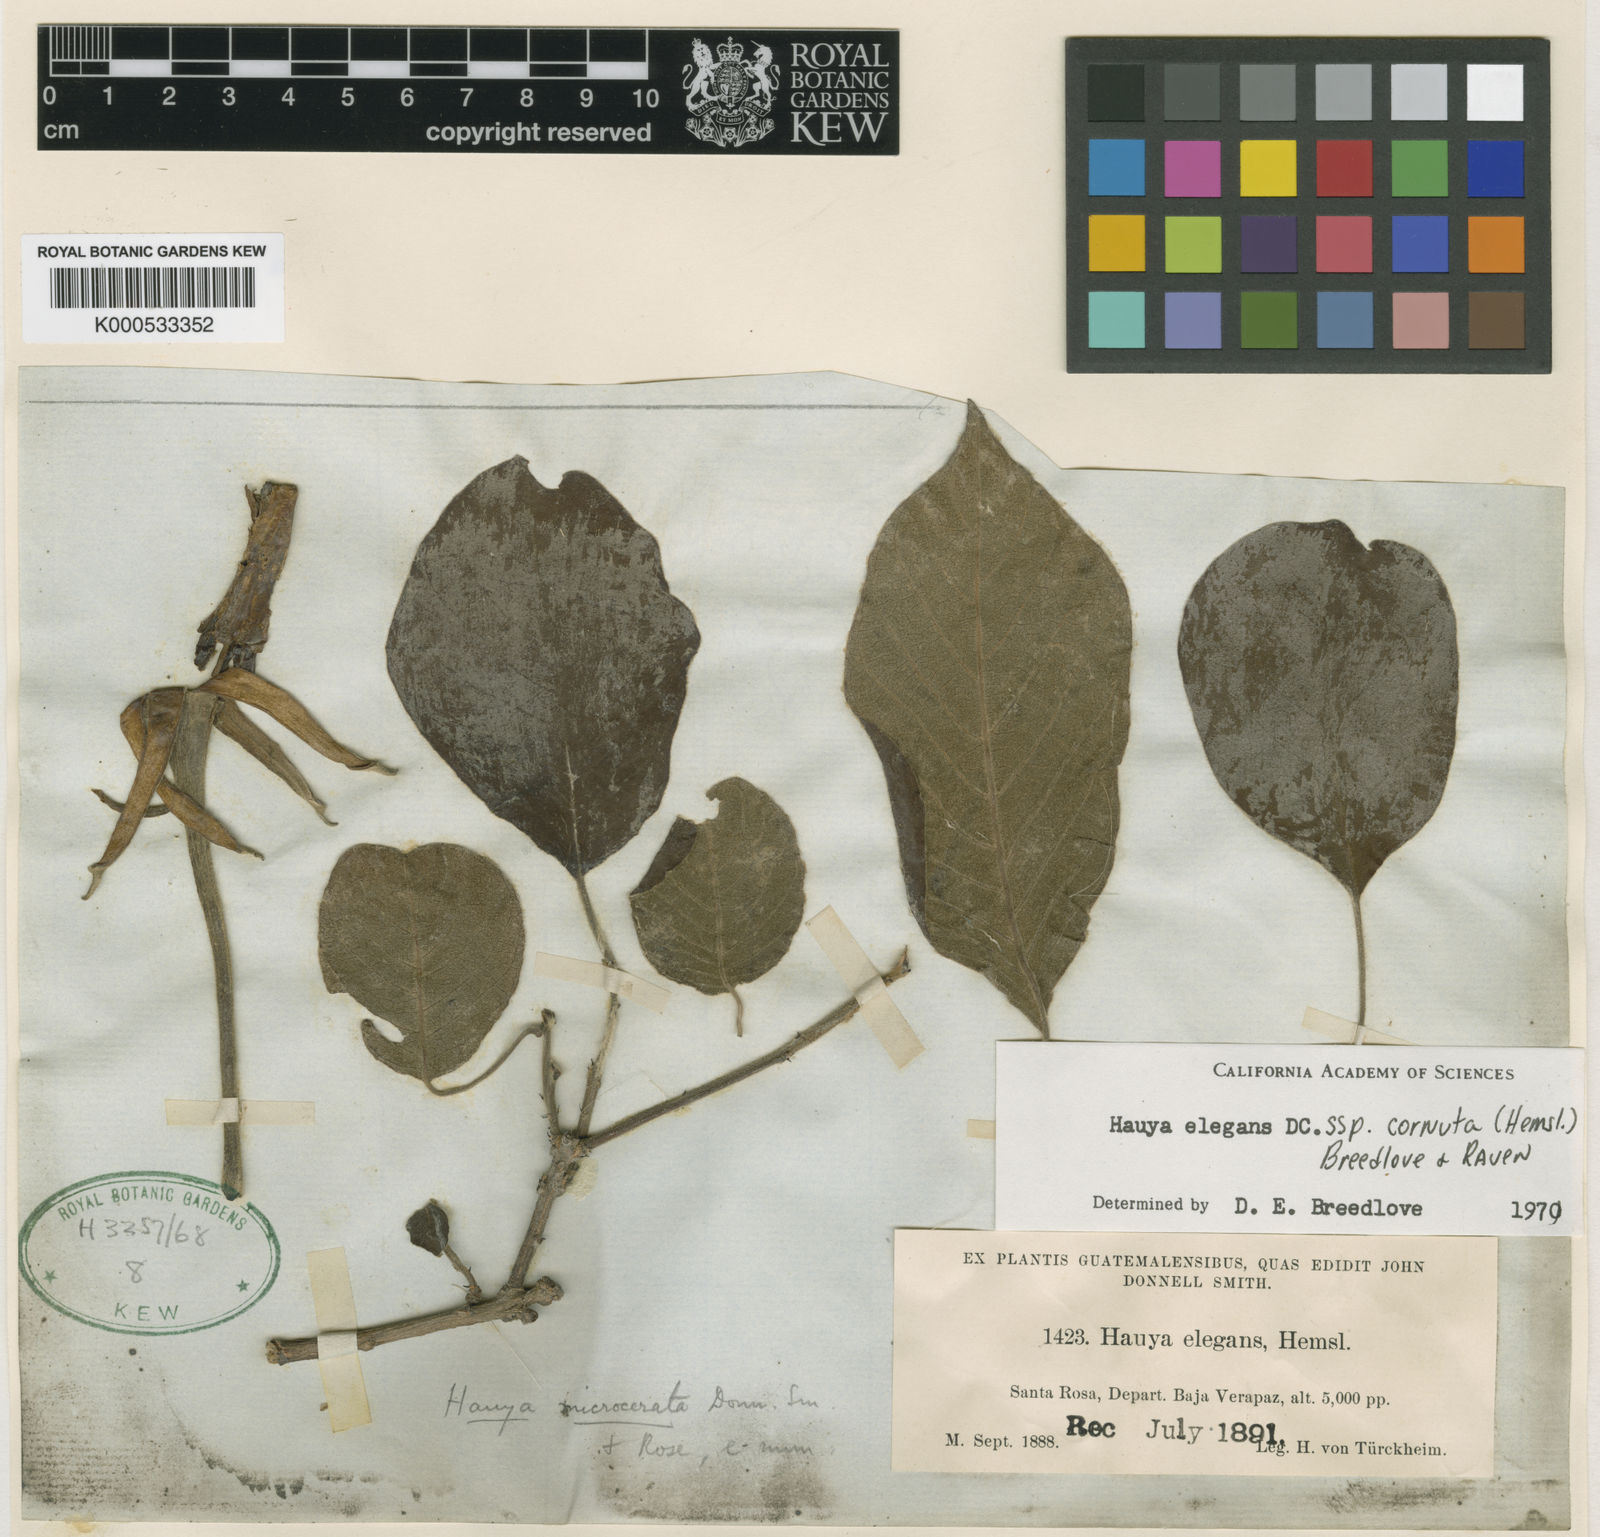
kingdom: Plantae
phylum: Tracheophyta
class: Magnoliopsida
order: Myrtales
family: Onagraceae
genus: Hauya
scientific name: Hauya elegans
